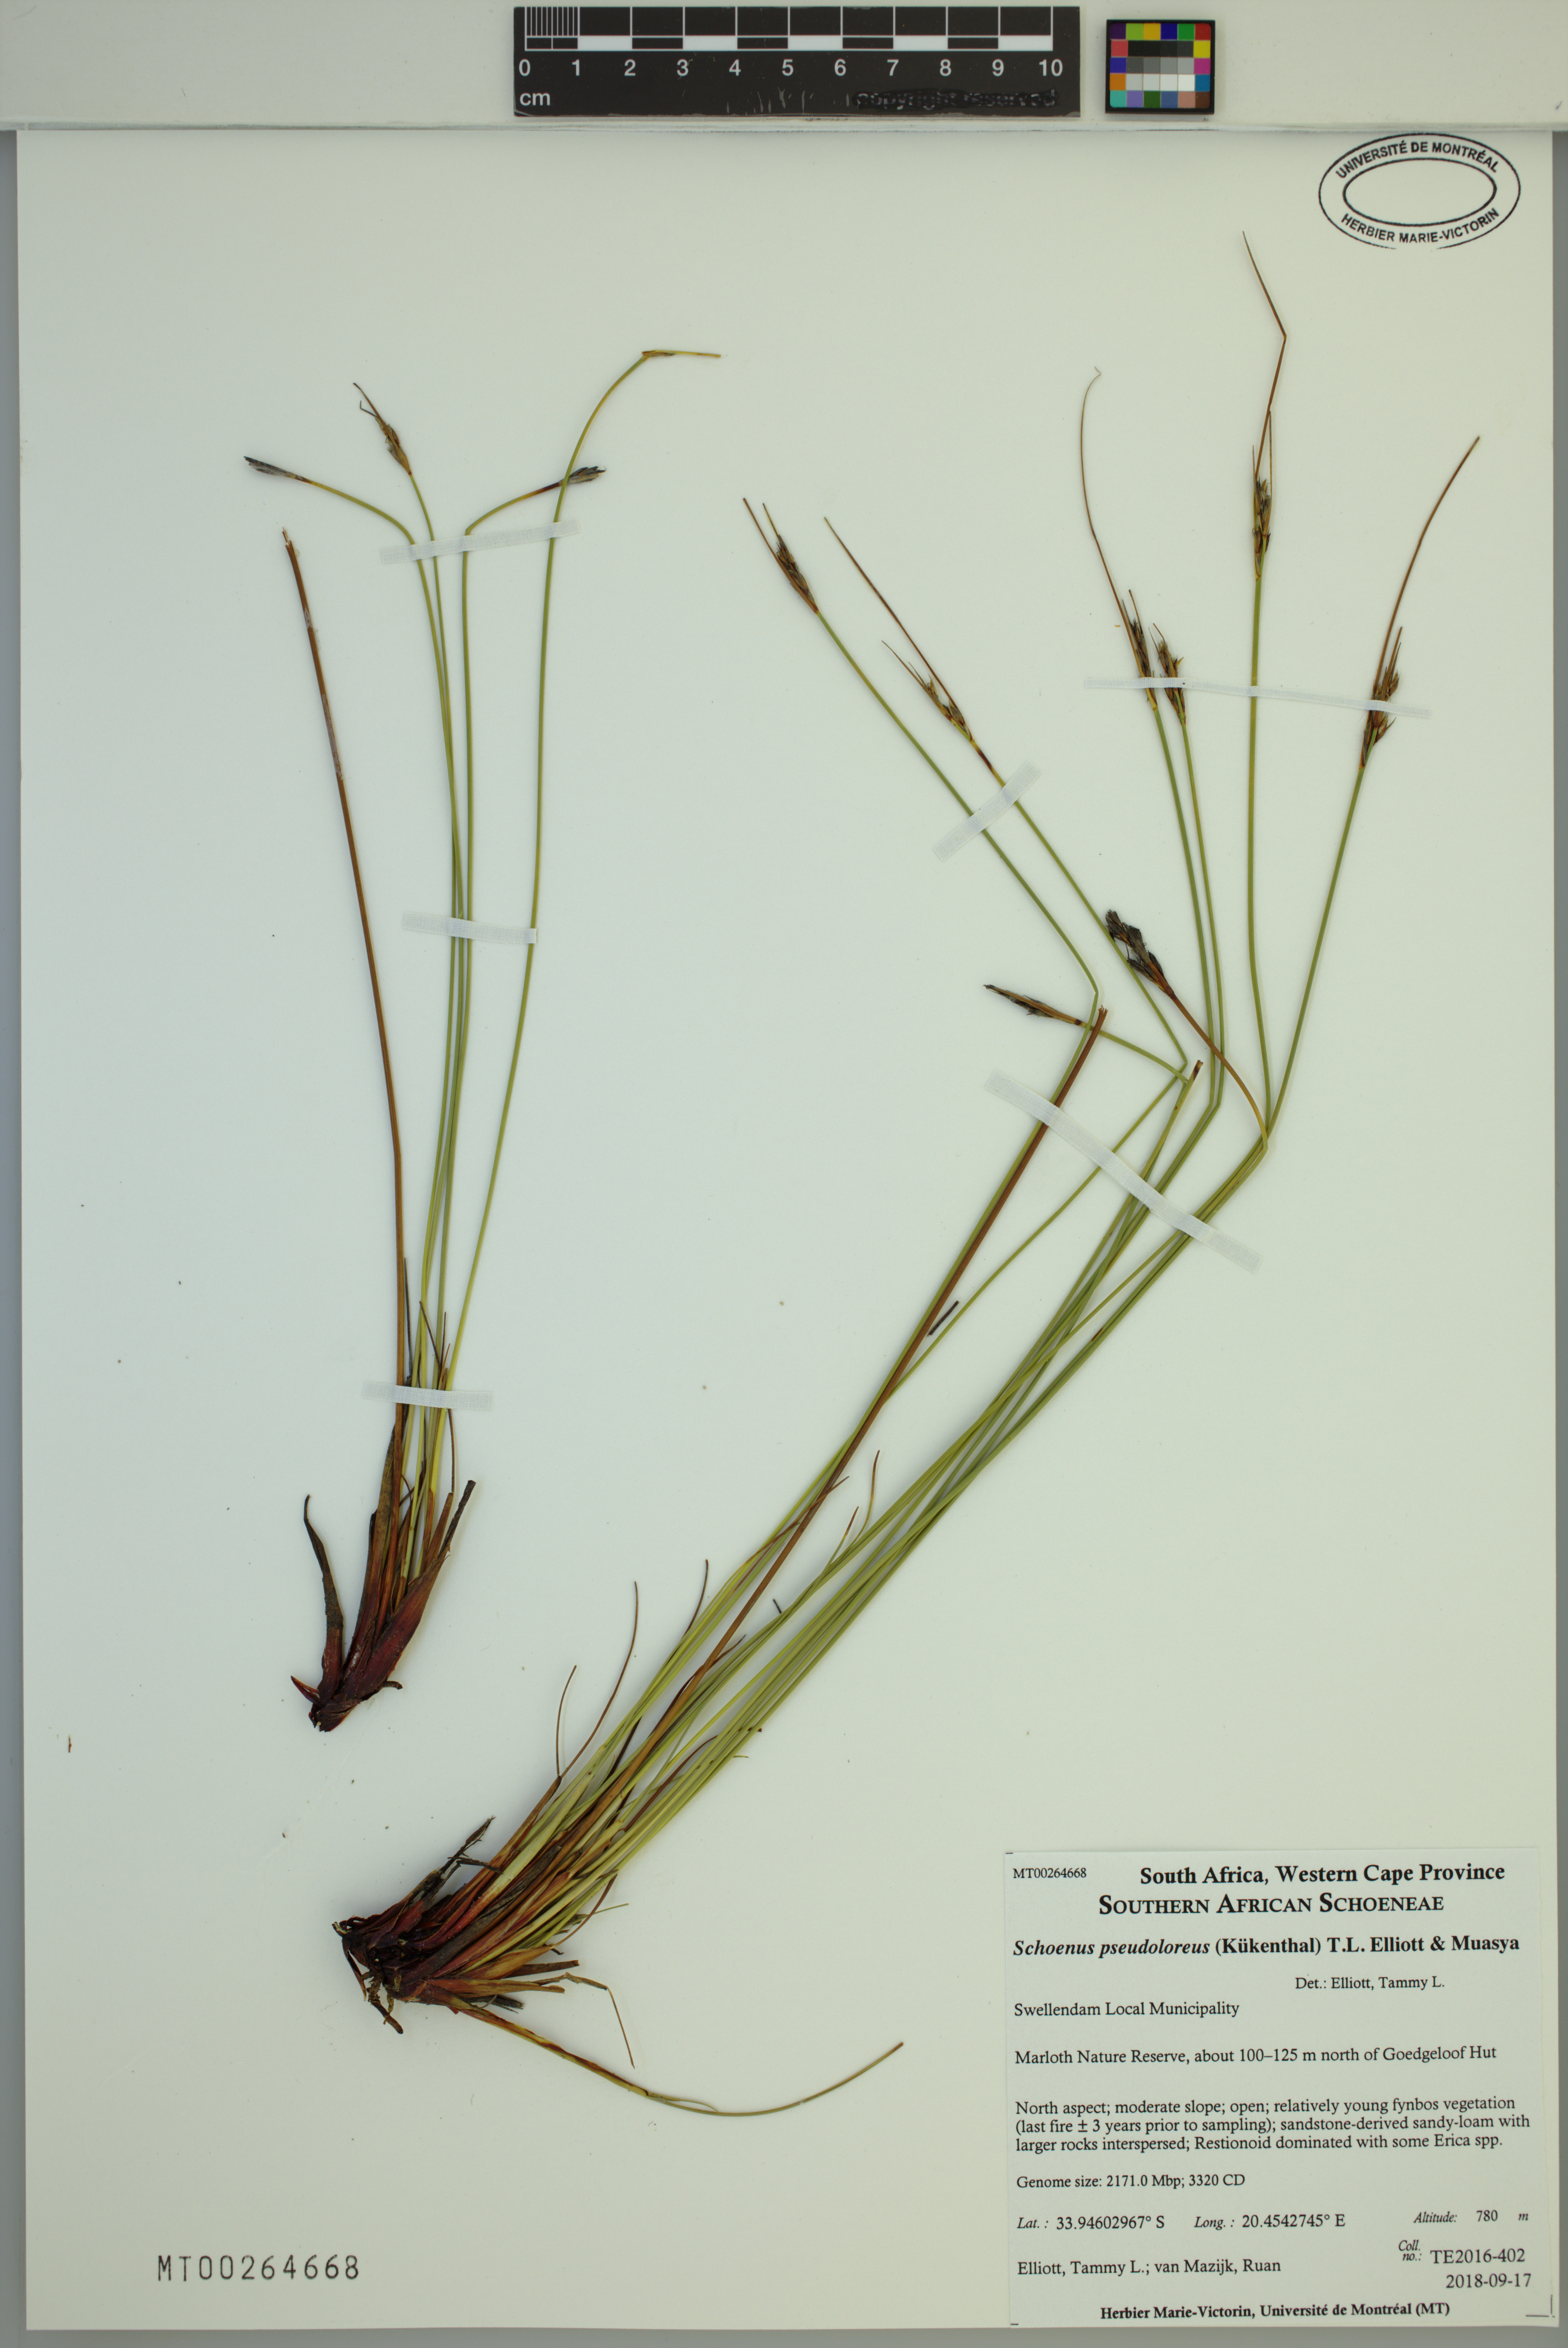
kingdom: Plantae
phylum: Tracheophyta
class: Liliopsida
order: Poales
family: Cyperaceae
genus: Schoenus
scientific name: Schoenus pseudoloreus
